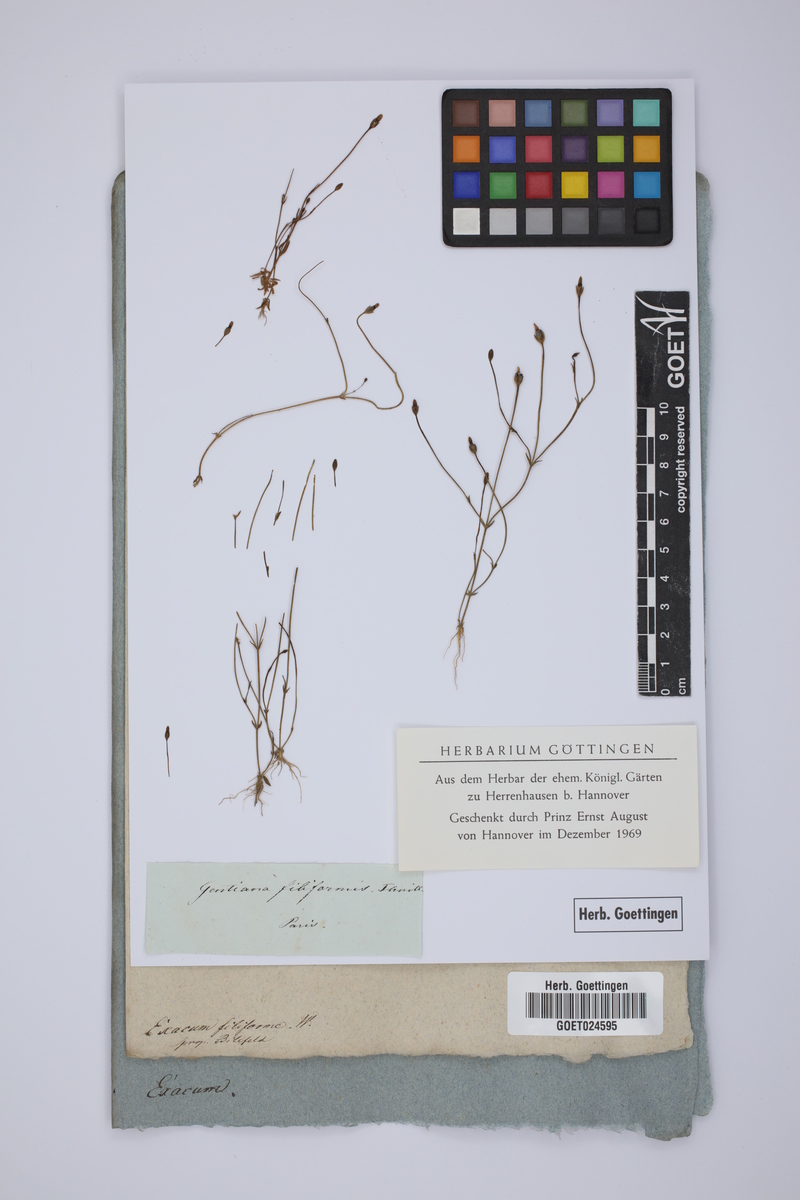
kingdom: Plantae
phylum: Tracheophyta
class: Magnoliopsida
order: Gentianales
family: Gentianaceae
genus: Cicendia
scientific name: Cicendia filiformis
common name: Yellow centaury
